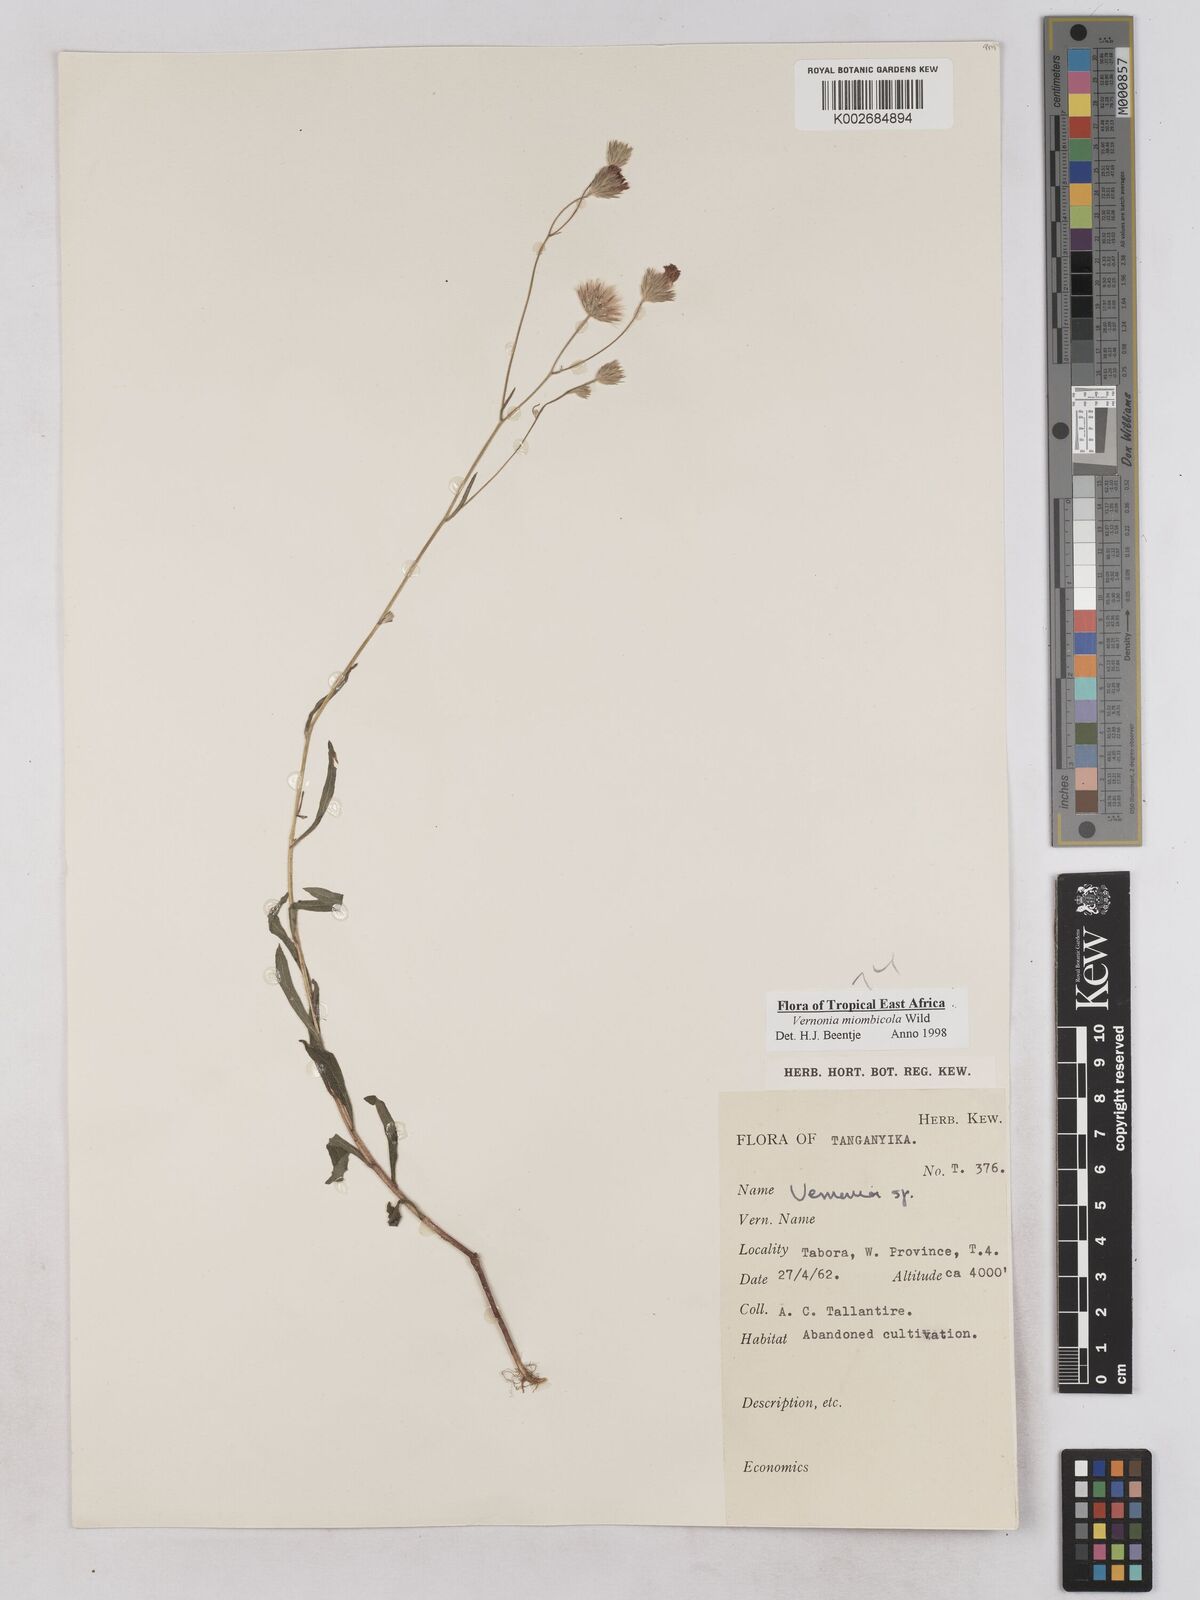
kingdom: Plantae
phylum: Tracheophyta
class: Magnoliopsida
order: Asterales
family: Asteraceae
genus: Vernonia
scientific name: Vernonia miombicola
